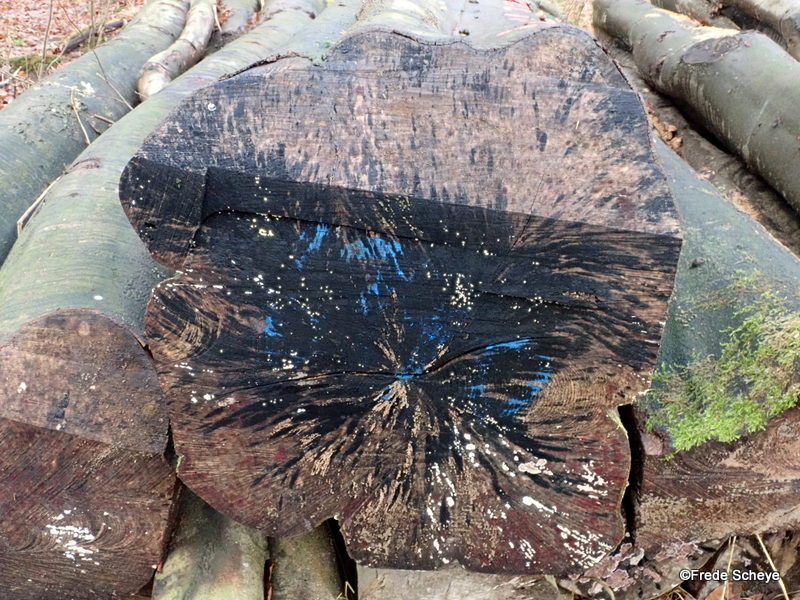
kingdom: Fungi
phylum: Ascomycota
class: Leotiomycetes
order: Helotiales
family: Helotiaceae
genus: Bispora
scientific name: Bispora pallescens
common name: måtte-snitskive
